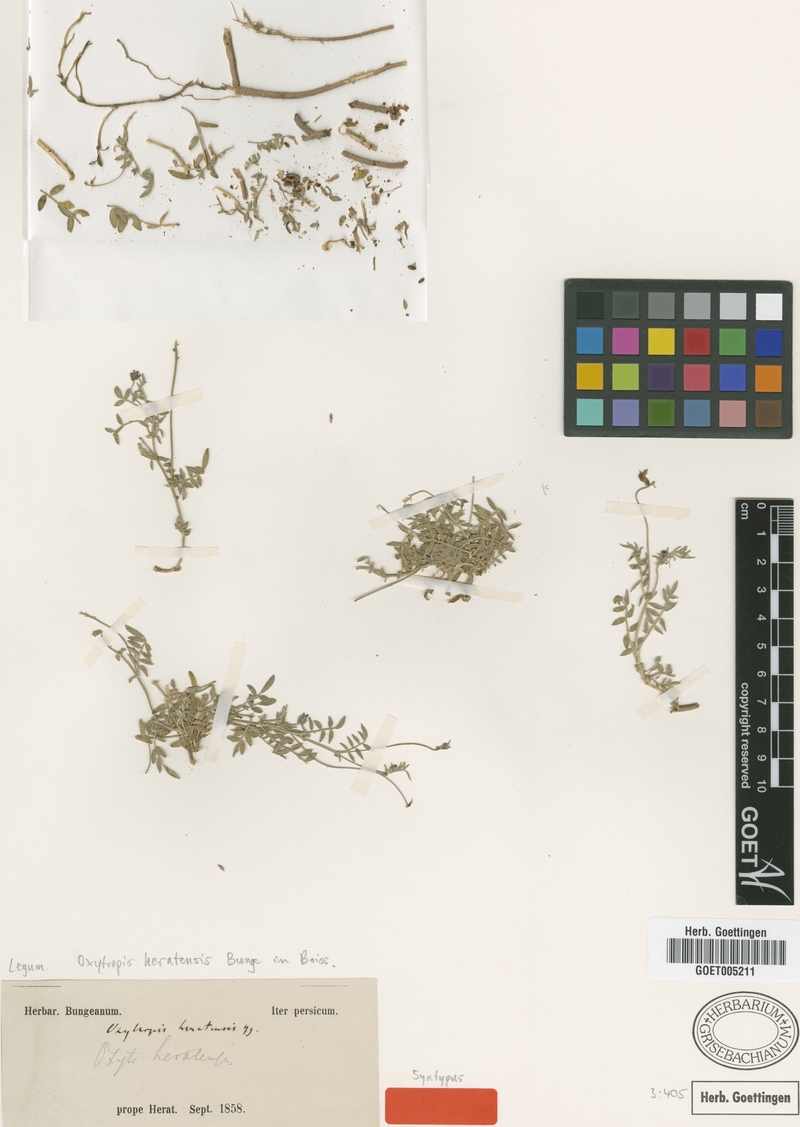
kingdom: Plantae
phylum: Tracheophyta
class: Magnoliopsida
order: Fabales
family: Fabaceae
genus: Oxytropis
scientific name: Oxytropis heratensis
